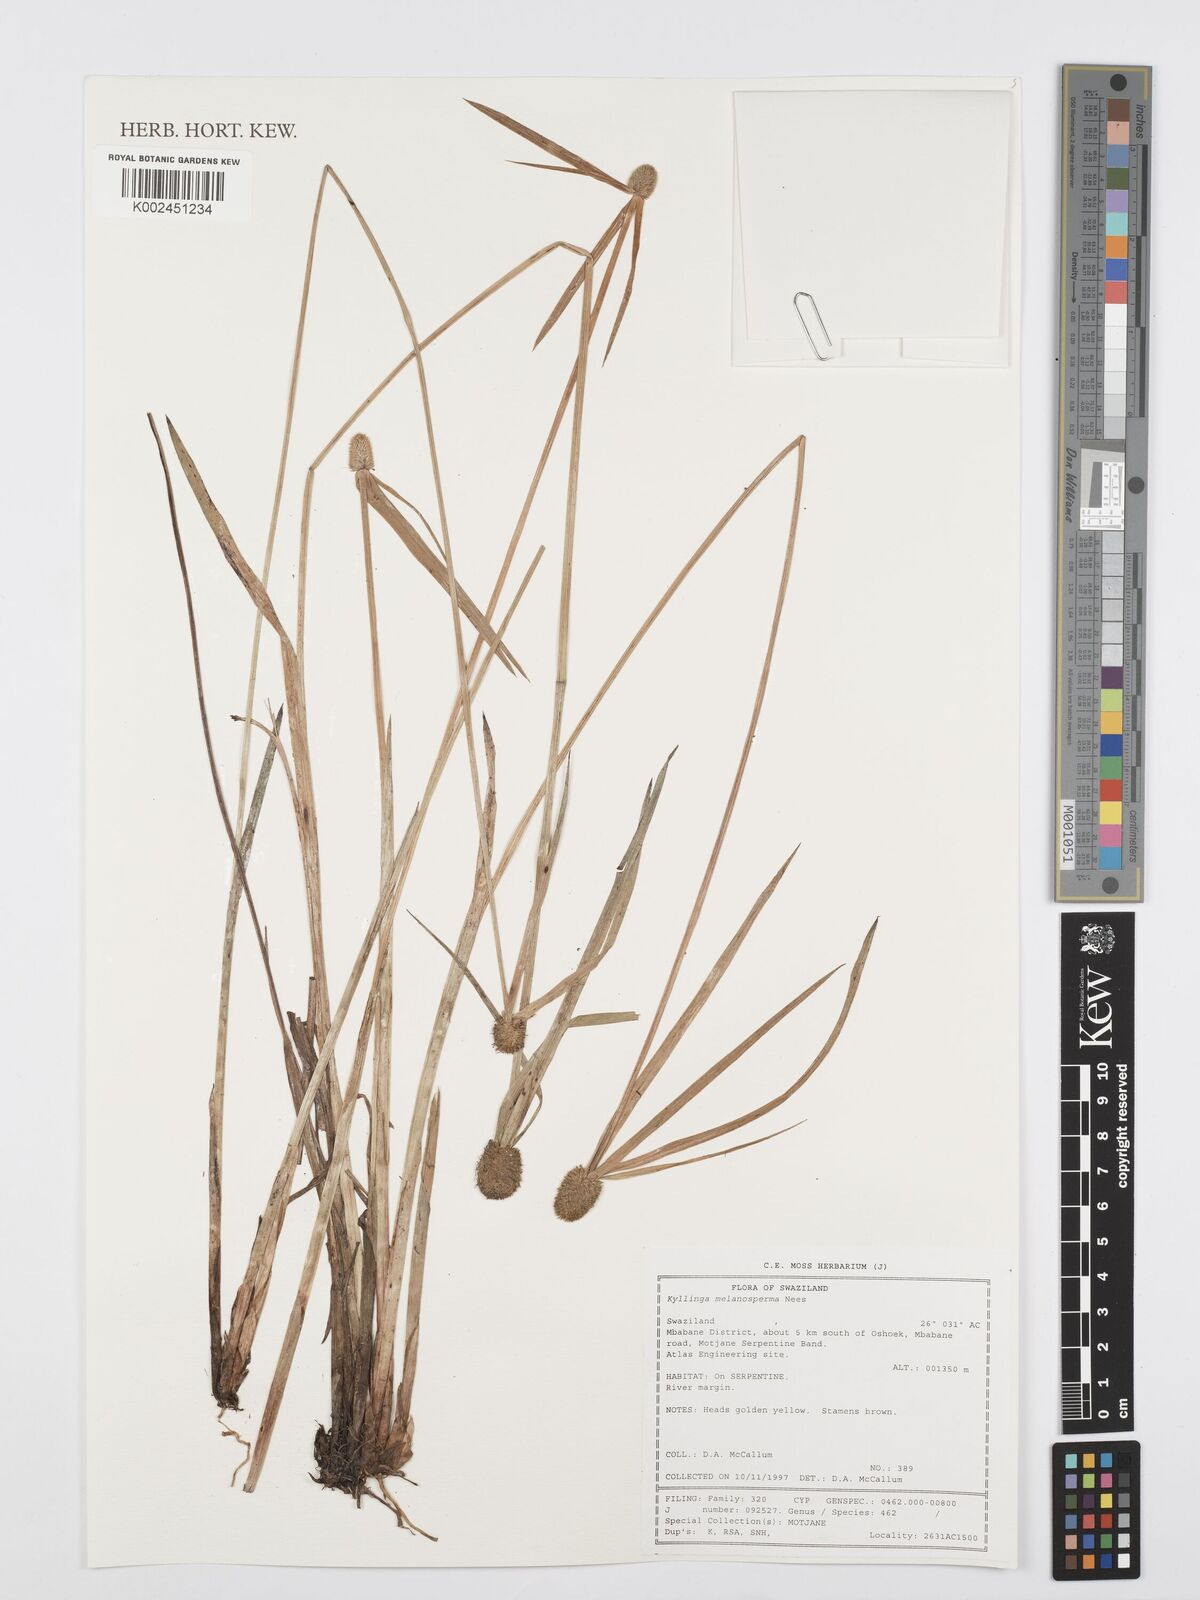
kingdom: Plantae
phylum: Tracheophyta
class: Liliopsida
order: Poales
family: Cyperaceae
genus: Cyperus
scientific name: Cyperus melanospermus
